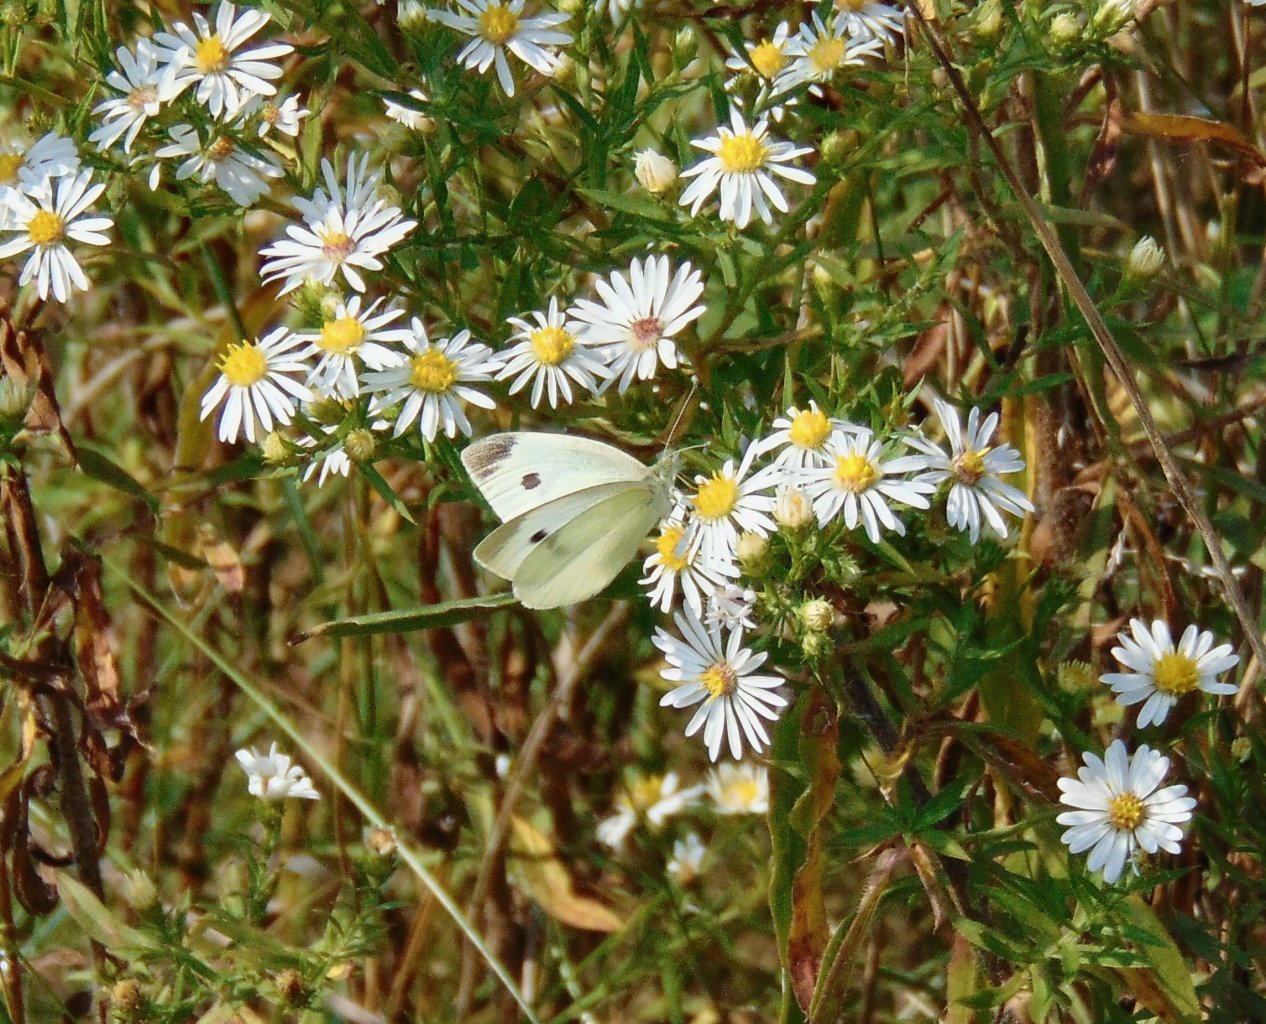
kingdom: Animalia
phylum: Arthropoda
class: Insecta
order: Lepidoptera
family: Pieridae
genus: Pieris
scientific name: Pieris rapae
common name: Cabbage White
